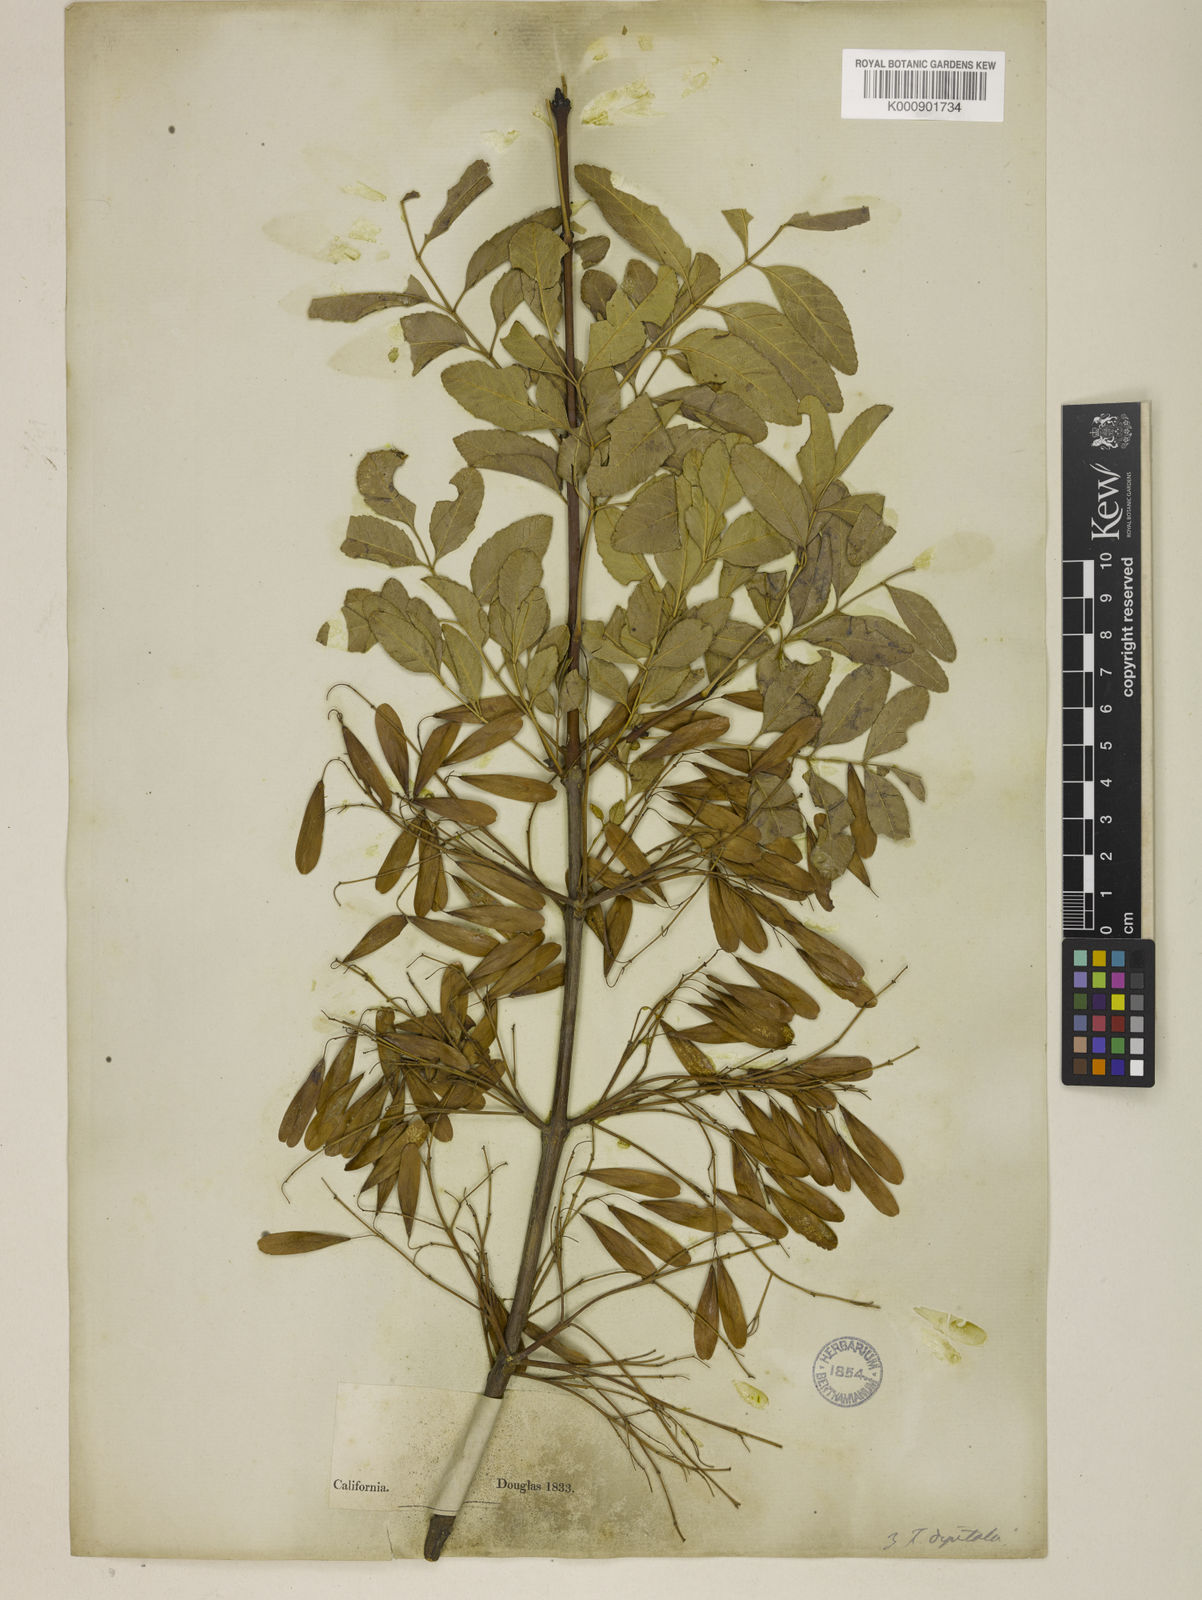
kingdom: Plantae
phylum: Tracheophyta
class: Magnoliopsida
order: Lamiales
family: Oleaceae
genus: Fraxinus
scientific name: Fraxinus dipetala
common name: California ash
